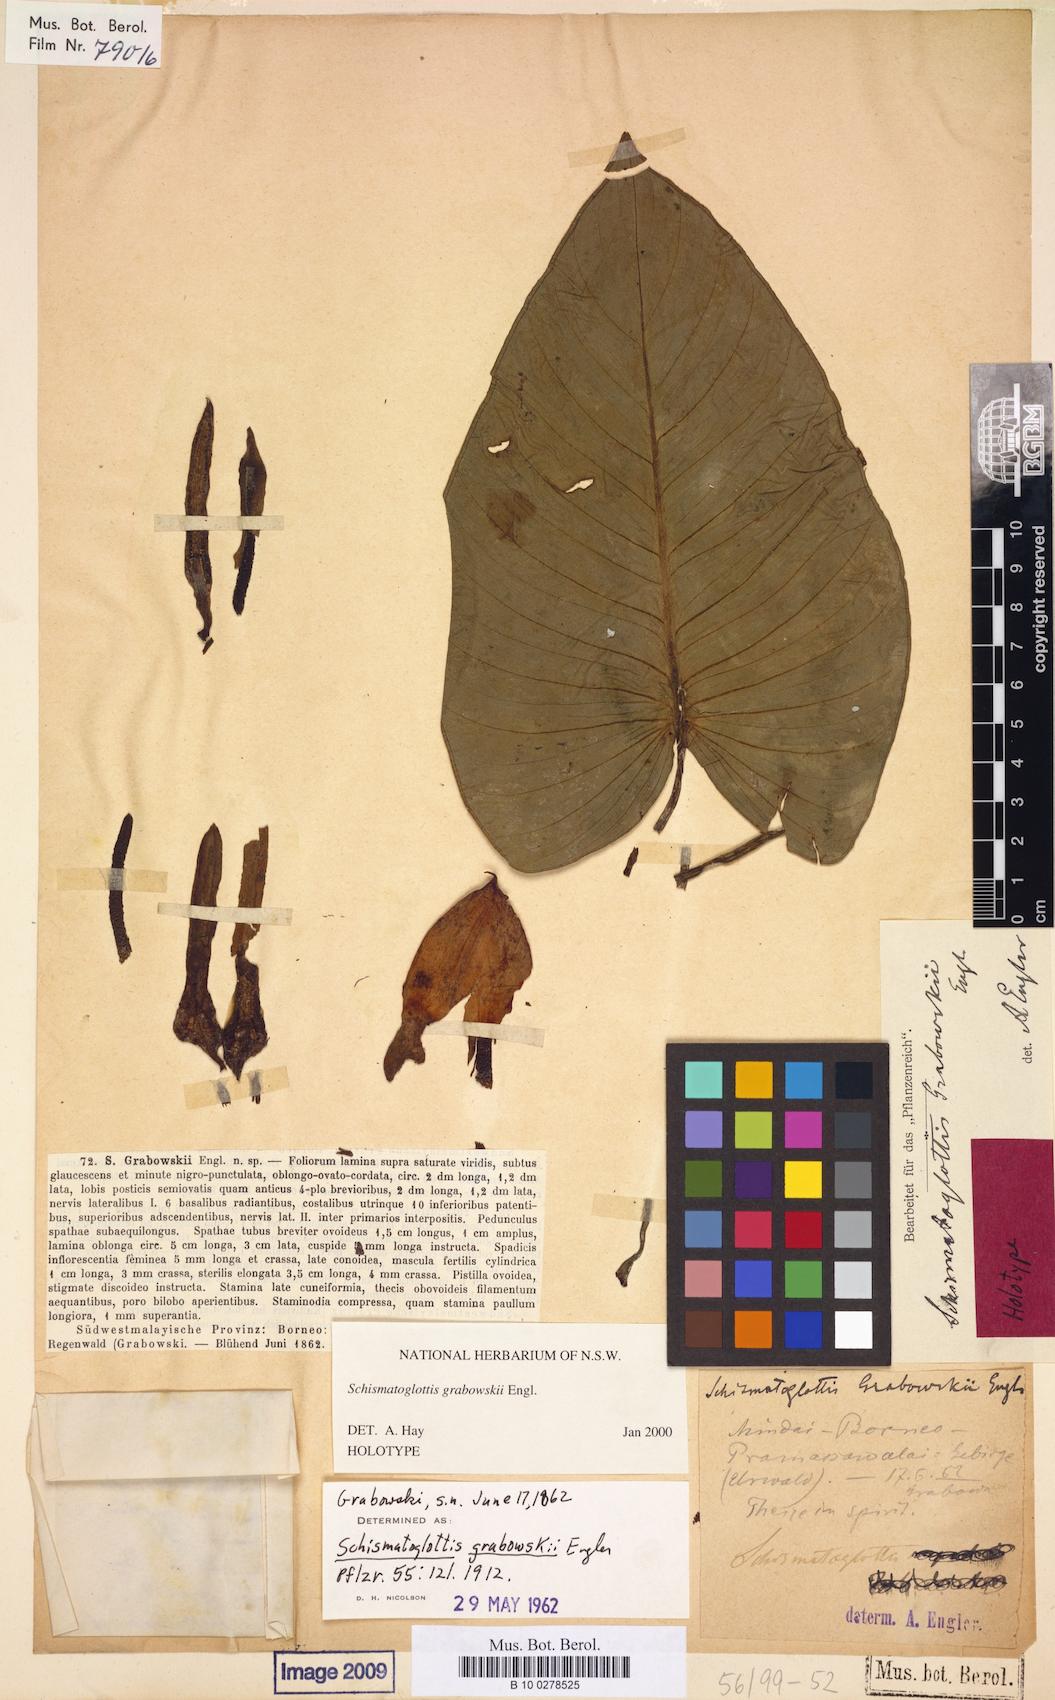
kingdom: Plantae
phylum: Tracheophyta
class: Liliopsida
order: Alismatales
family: Araceae
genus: Schismatoglottis
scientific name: Schismatoglottis grabowskii
